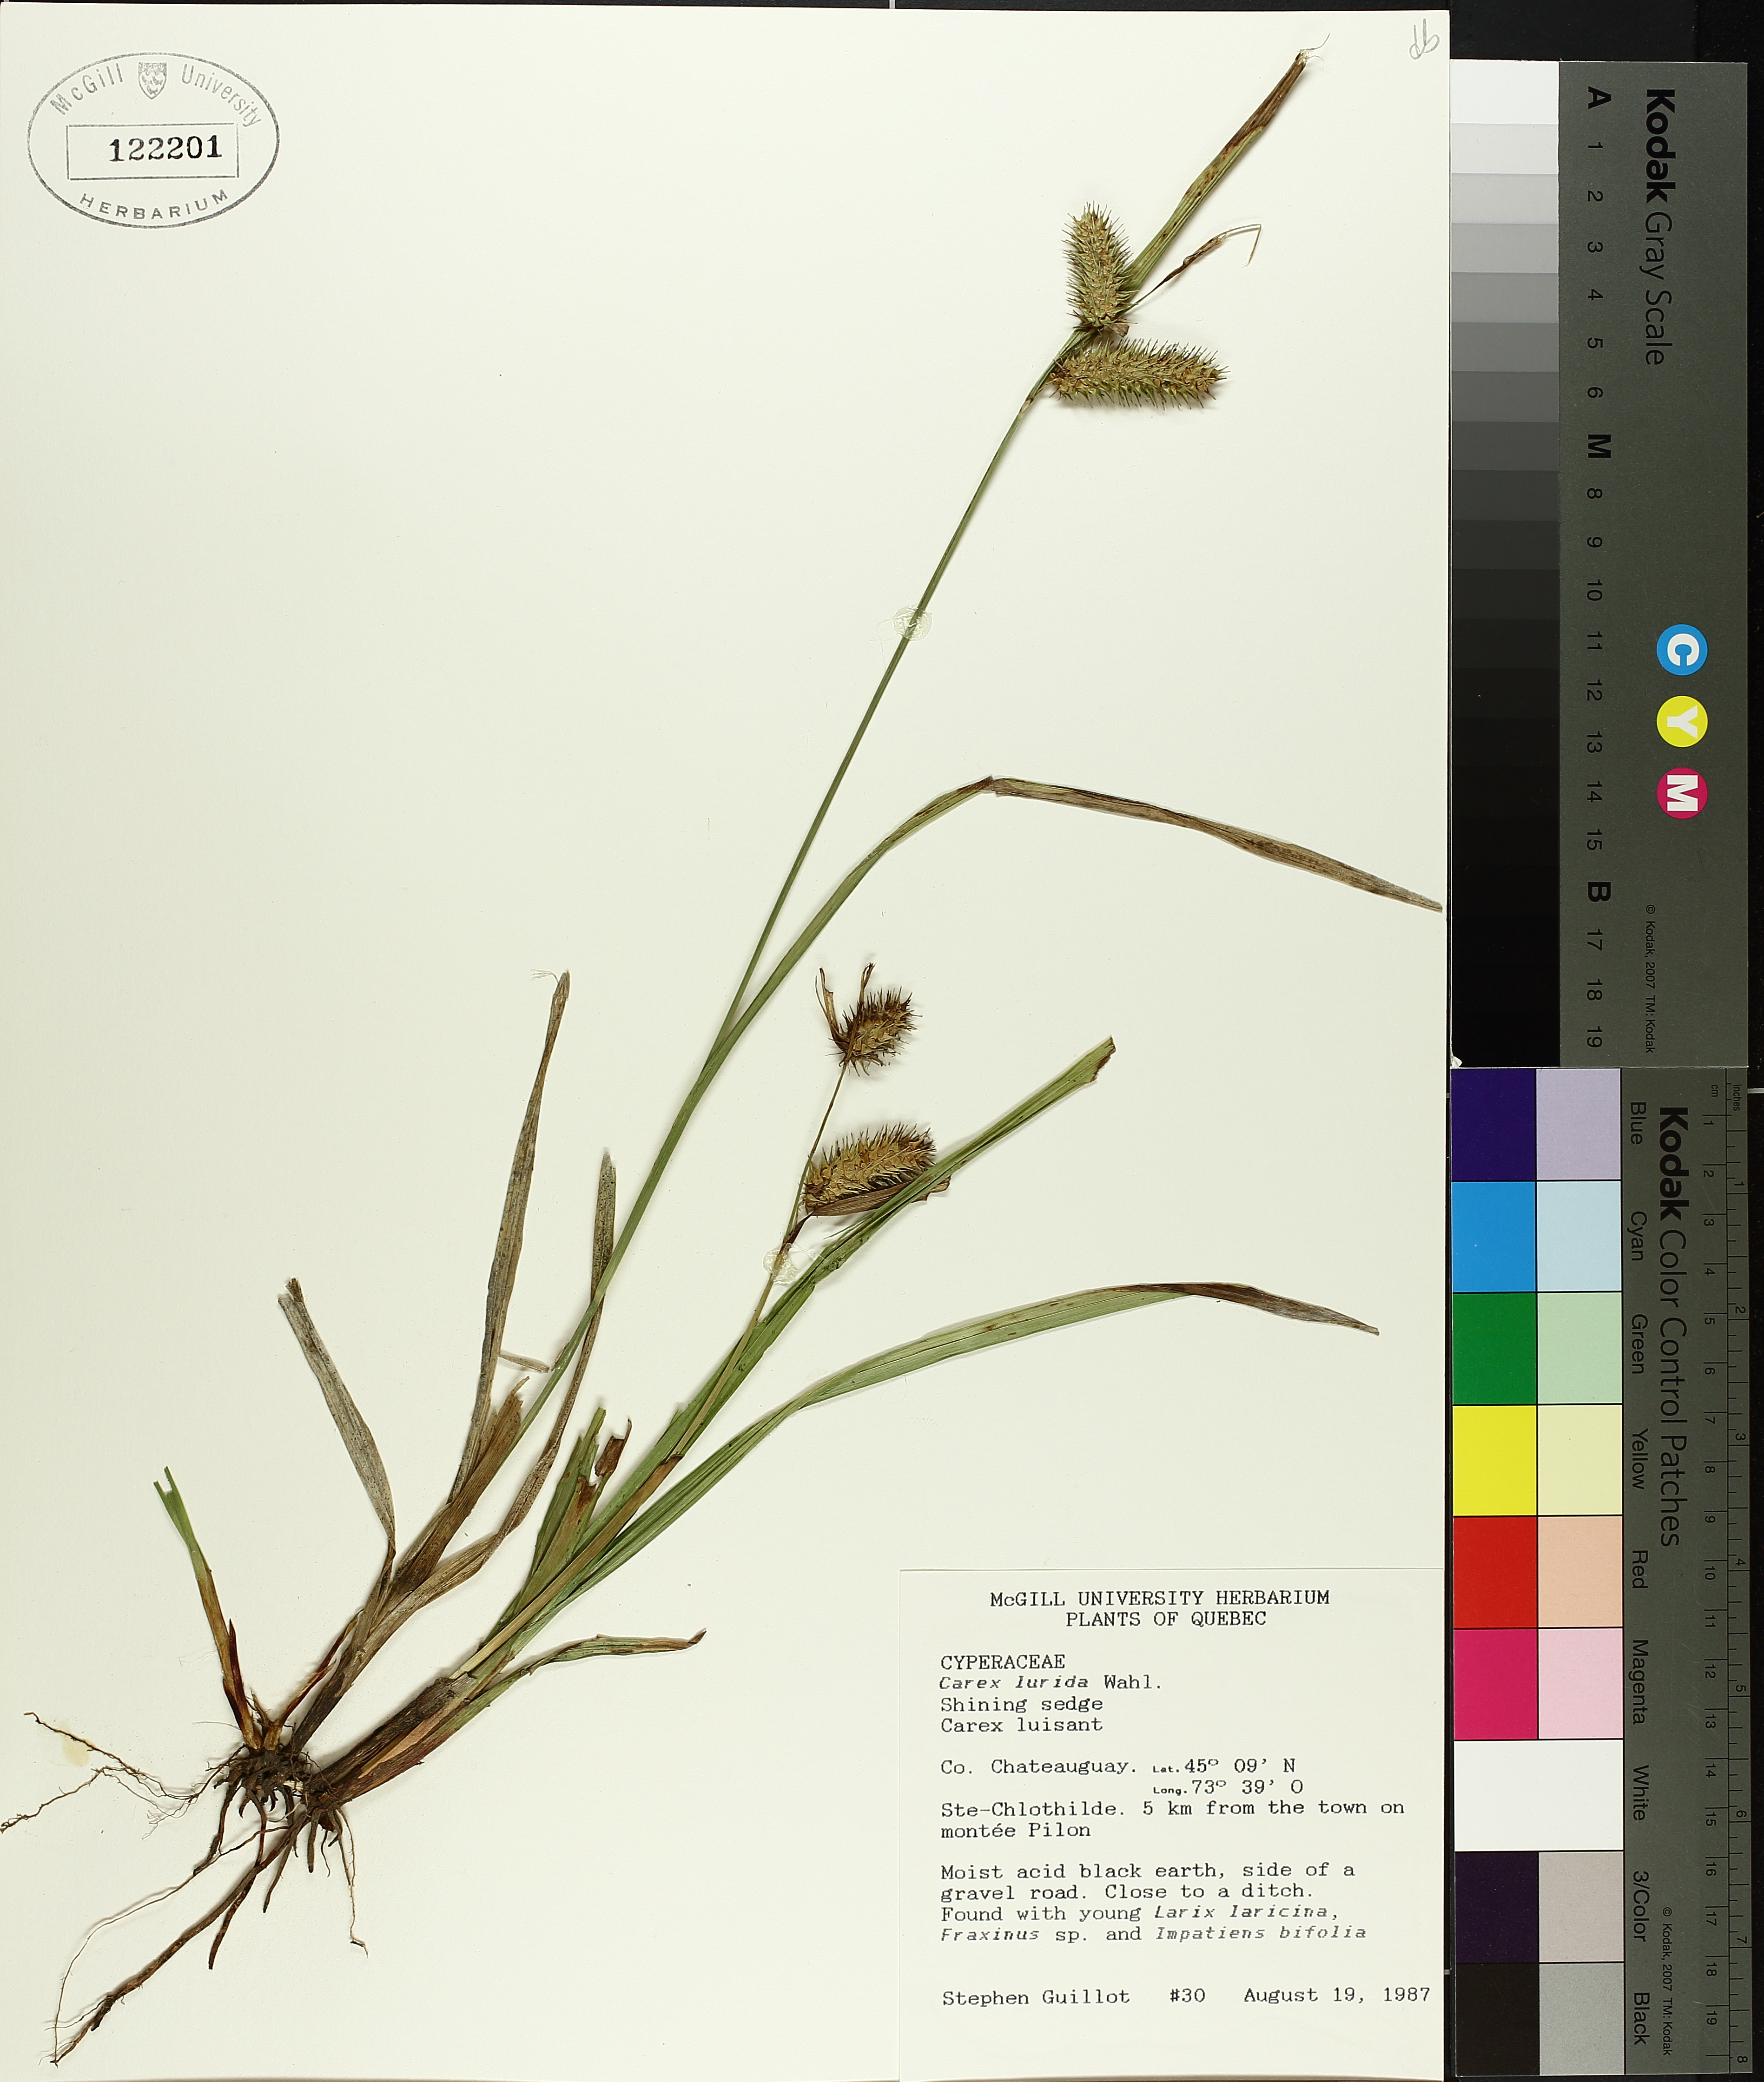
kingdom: Plantae
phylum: Tracheophyta
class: Liliopsida
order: Poales
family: Cyperaceae
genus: Carex
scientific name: Carex lurida
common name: Sallow sedge
